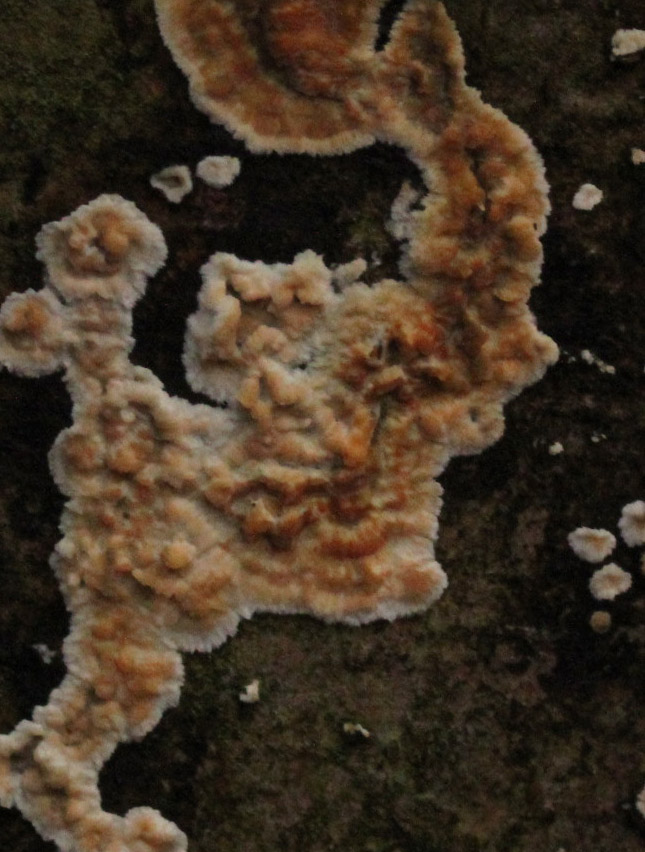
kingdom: Fungi
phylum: Basidiomycota
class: Agaricomycetes
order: Polyporales
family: Meruliaceae
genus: Phlebia
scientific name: Phlebia radiata
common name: stråle-åresvamp
